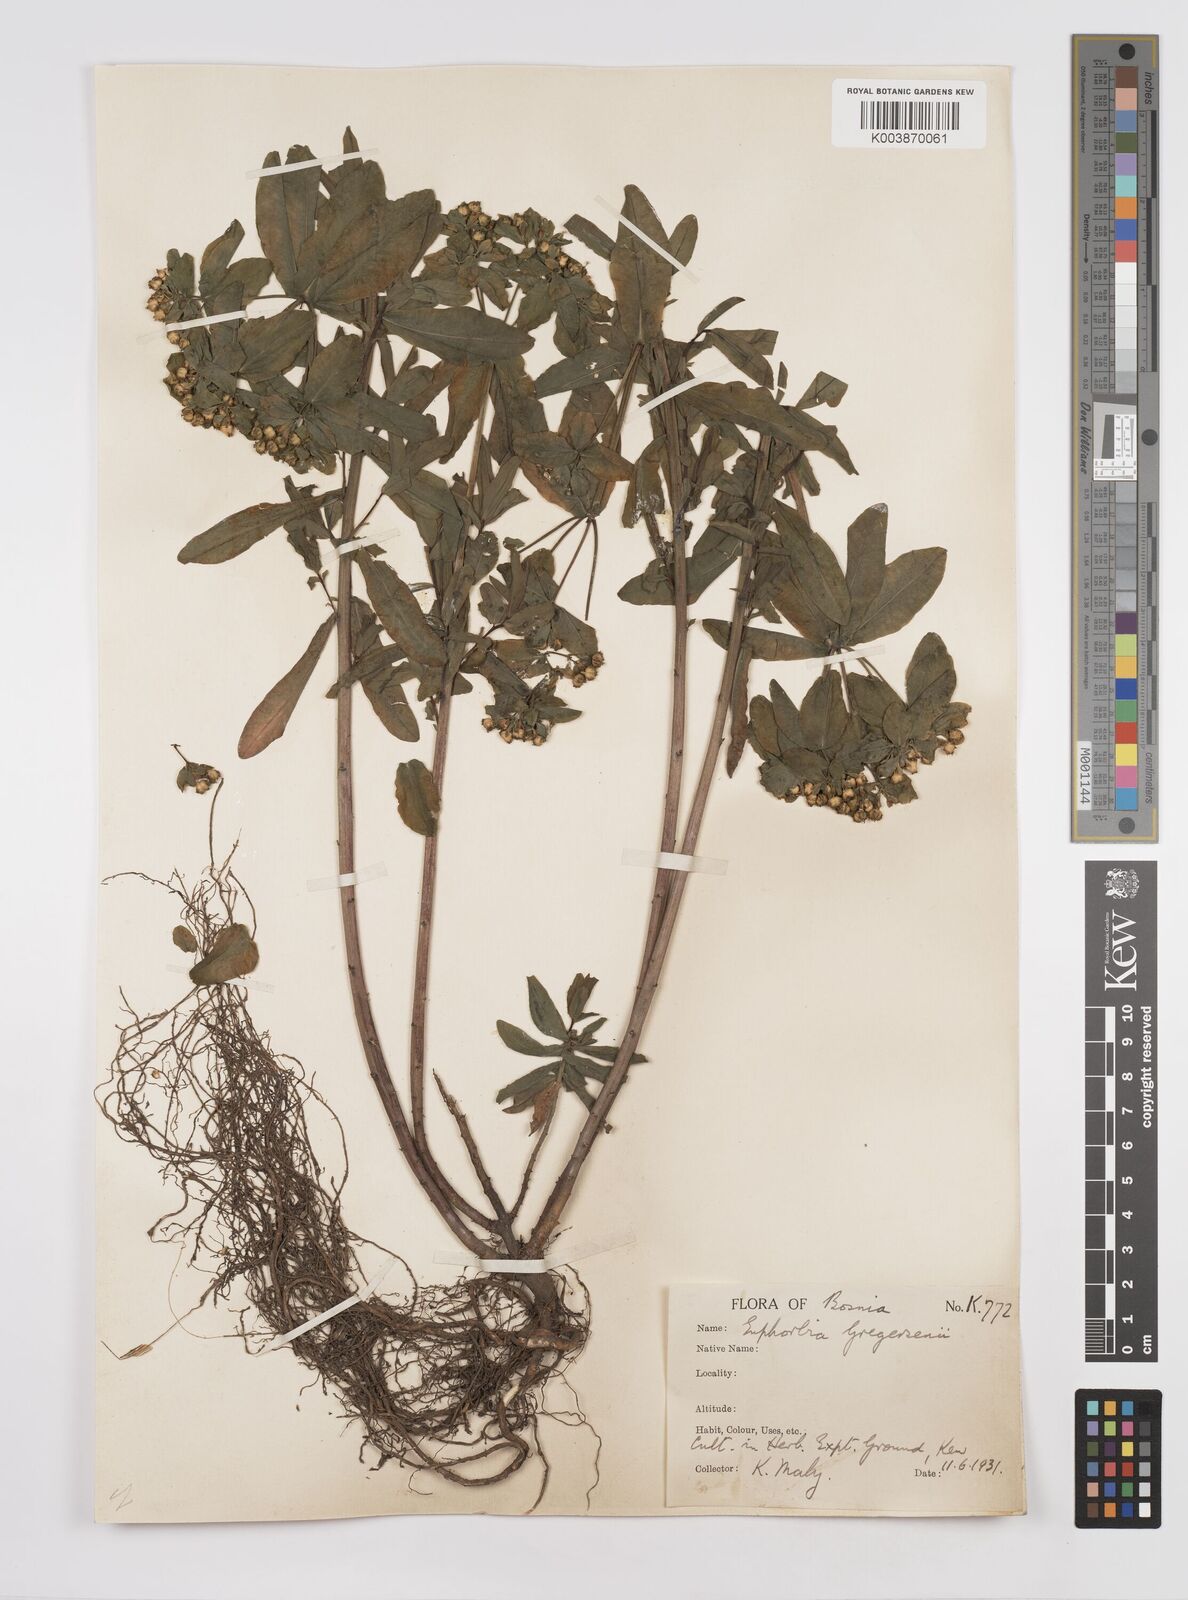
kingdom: Plantae
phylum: Tracheophyta
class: Magnoliopsida
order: Malpighiales
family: Euphorbiaceae
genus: Euphorbia
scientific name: Euphorbia gregersenii
